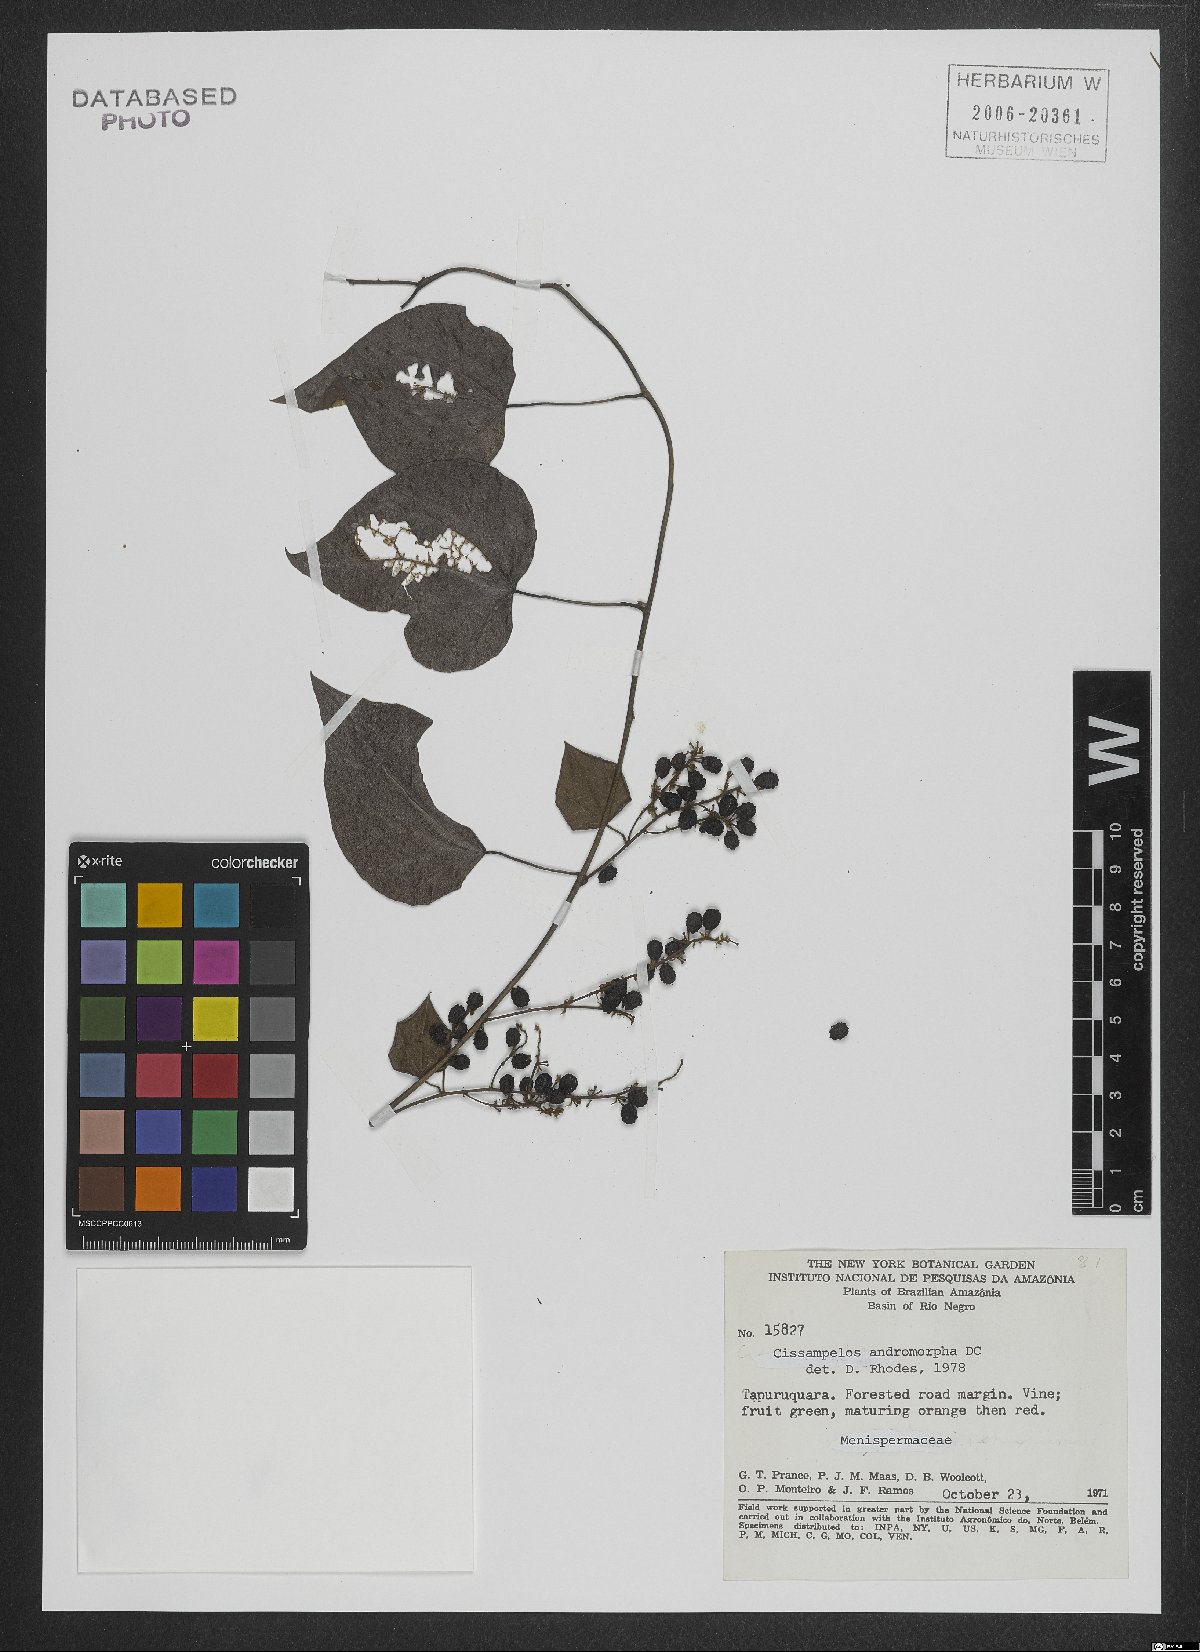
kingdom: Plantae
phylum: Tracheophyta
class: Magnoliopsida
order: Ranunculales
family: Menispermaceae
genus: Cissampelos
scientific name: Cissampelos andromorpha
